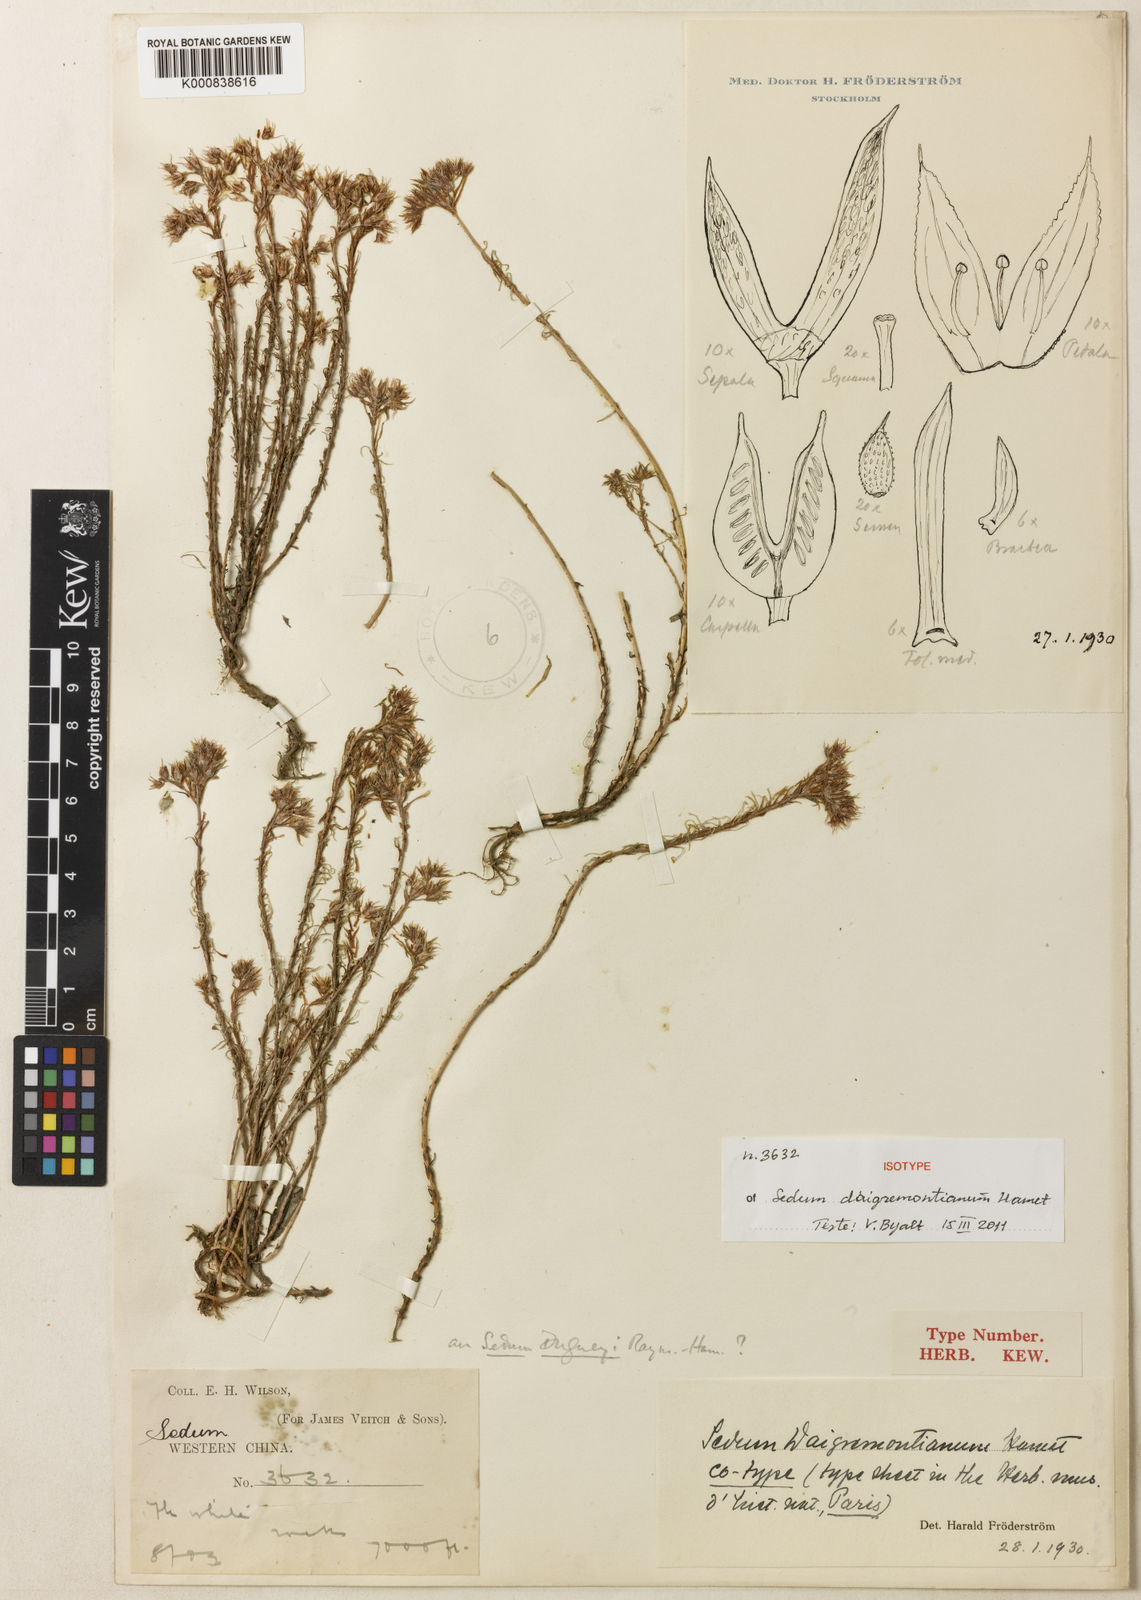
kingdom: Plantae
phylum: Tracheophyta
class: Magnoliopsida
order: Saxifragales
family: Crassulaceae
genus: Sedum
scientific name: Sedum daigremontianum
